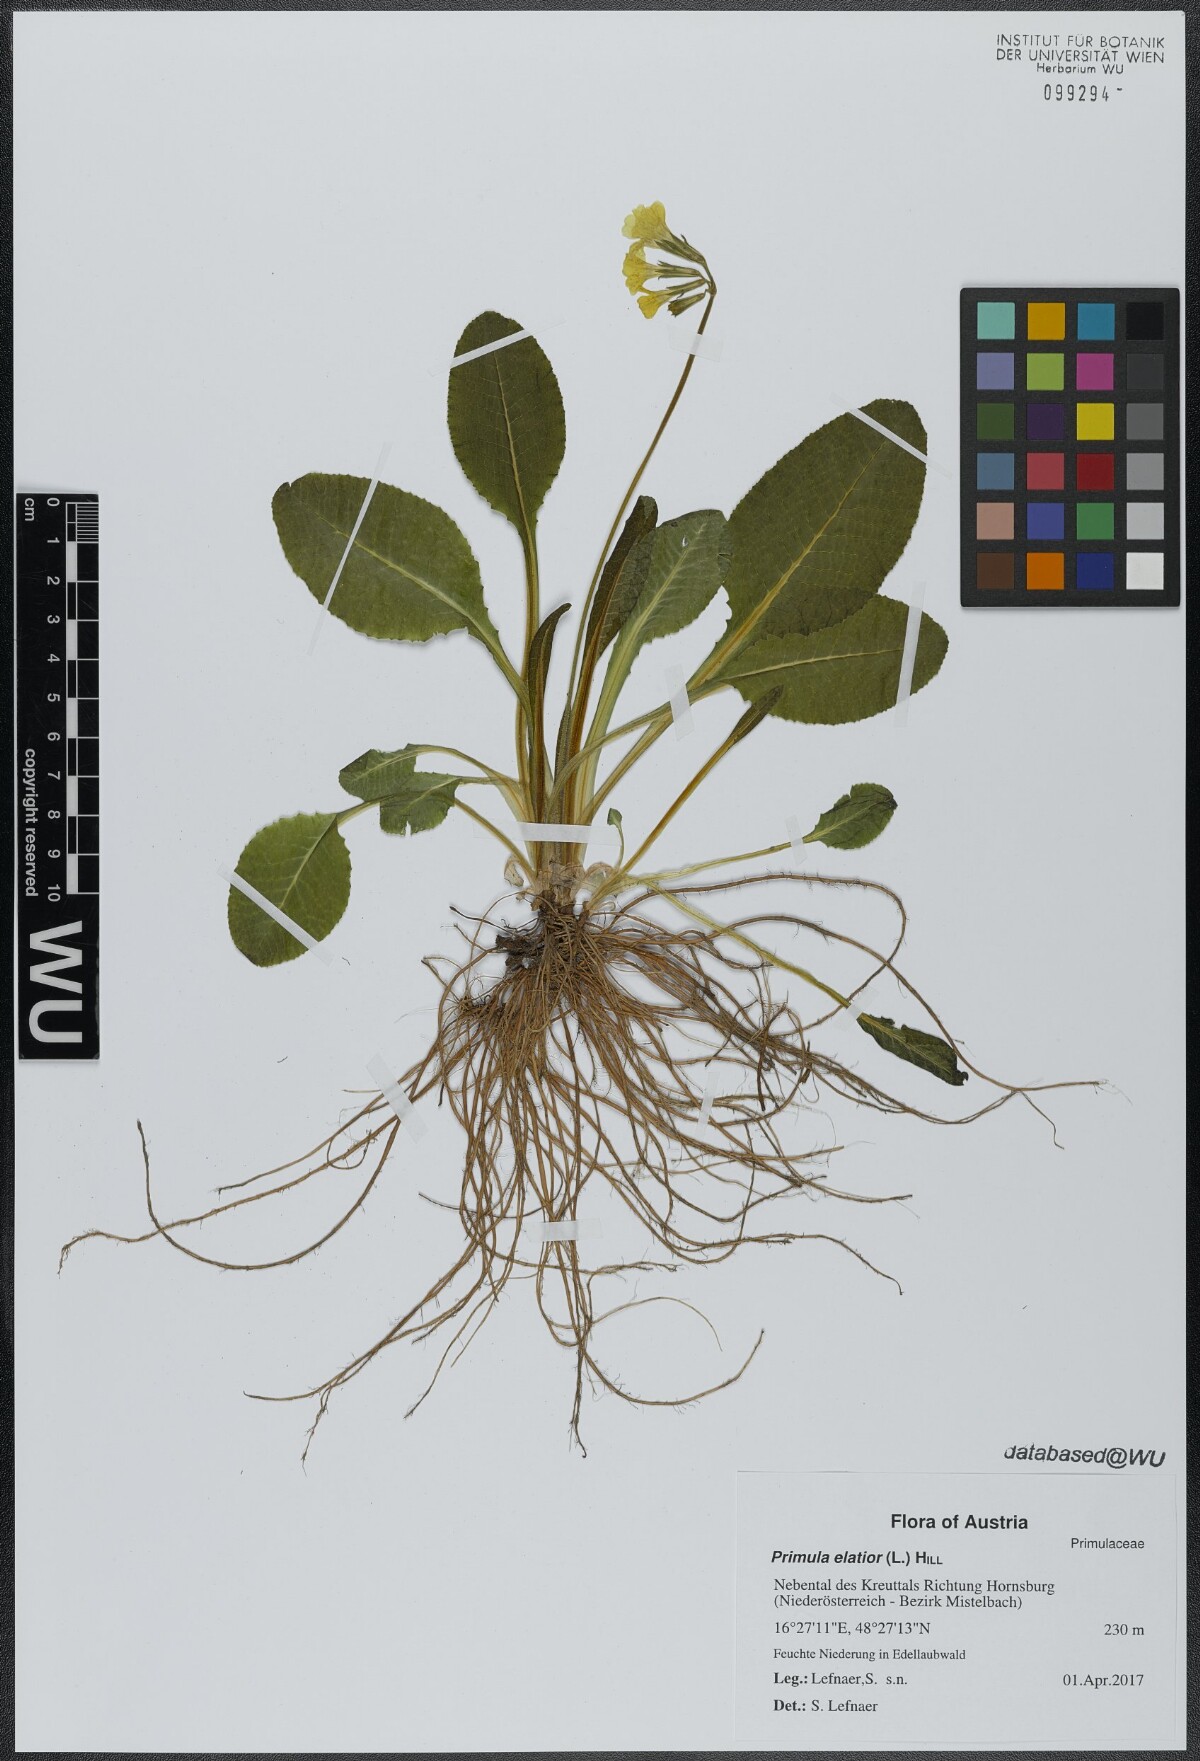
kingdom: Plantae
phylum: Tracheophyta
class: Magnoliopsida
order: Ericales
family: Primulaceae
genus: Primula
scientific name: Primula elatior
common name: Oxlip
